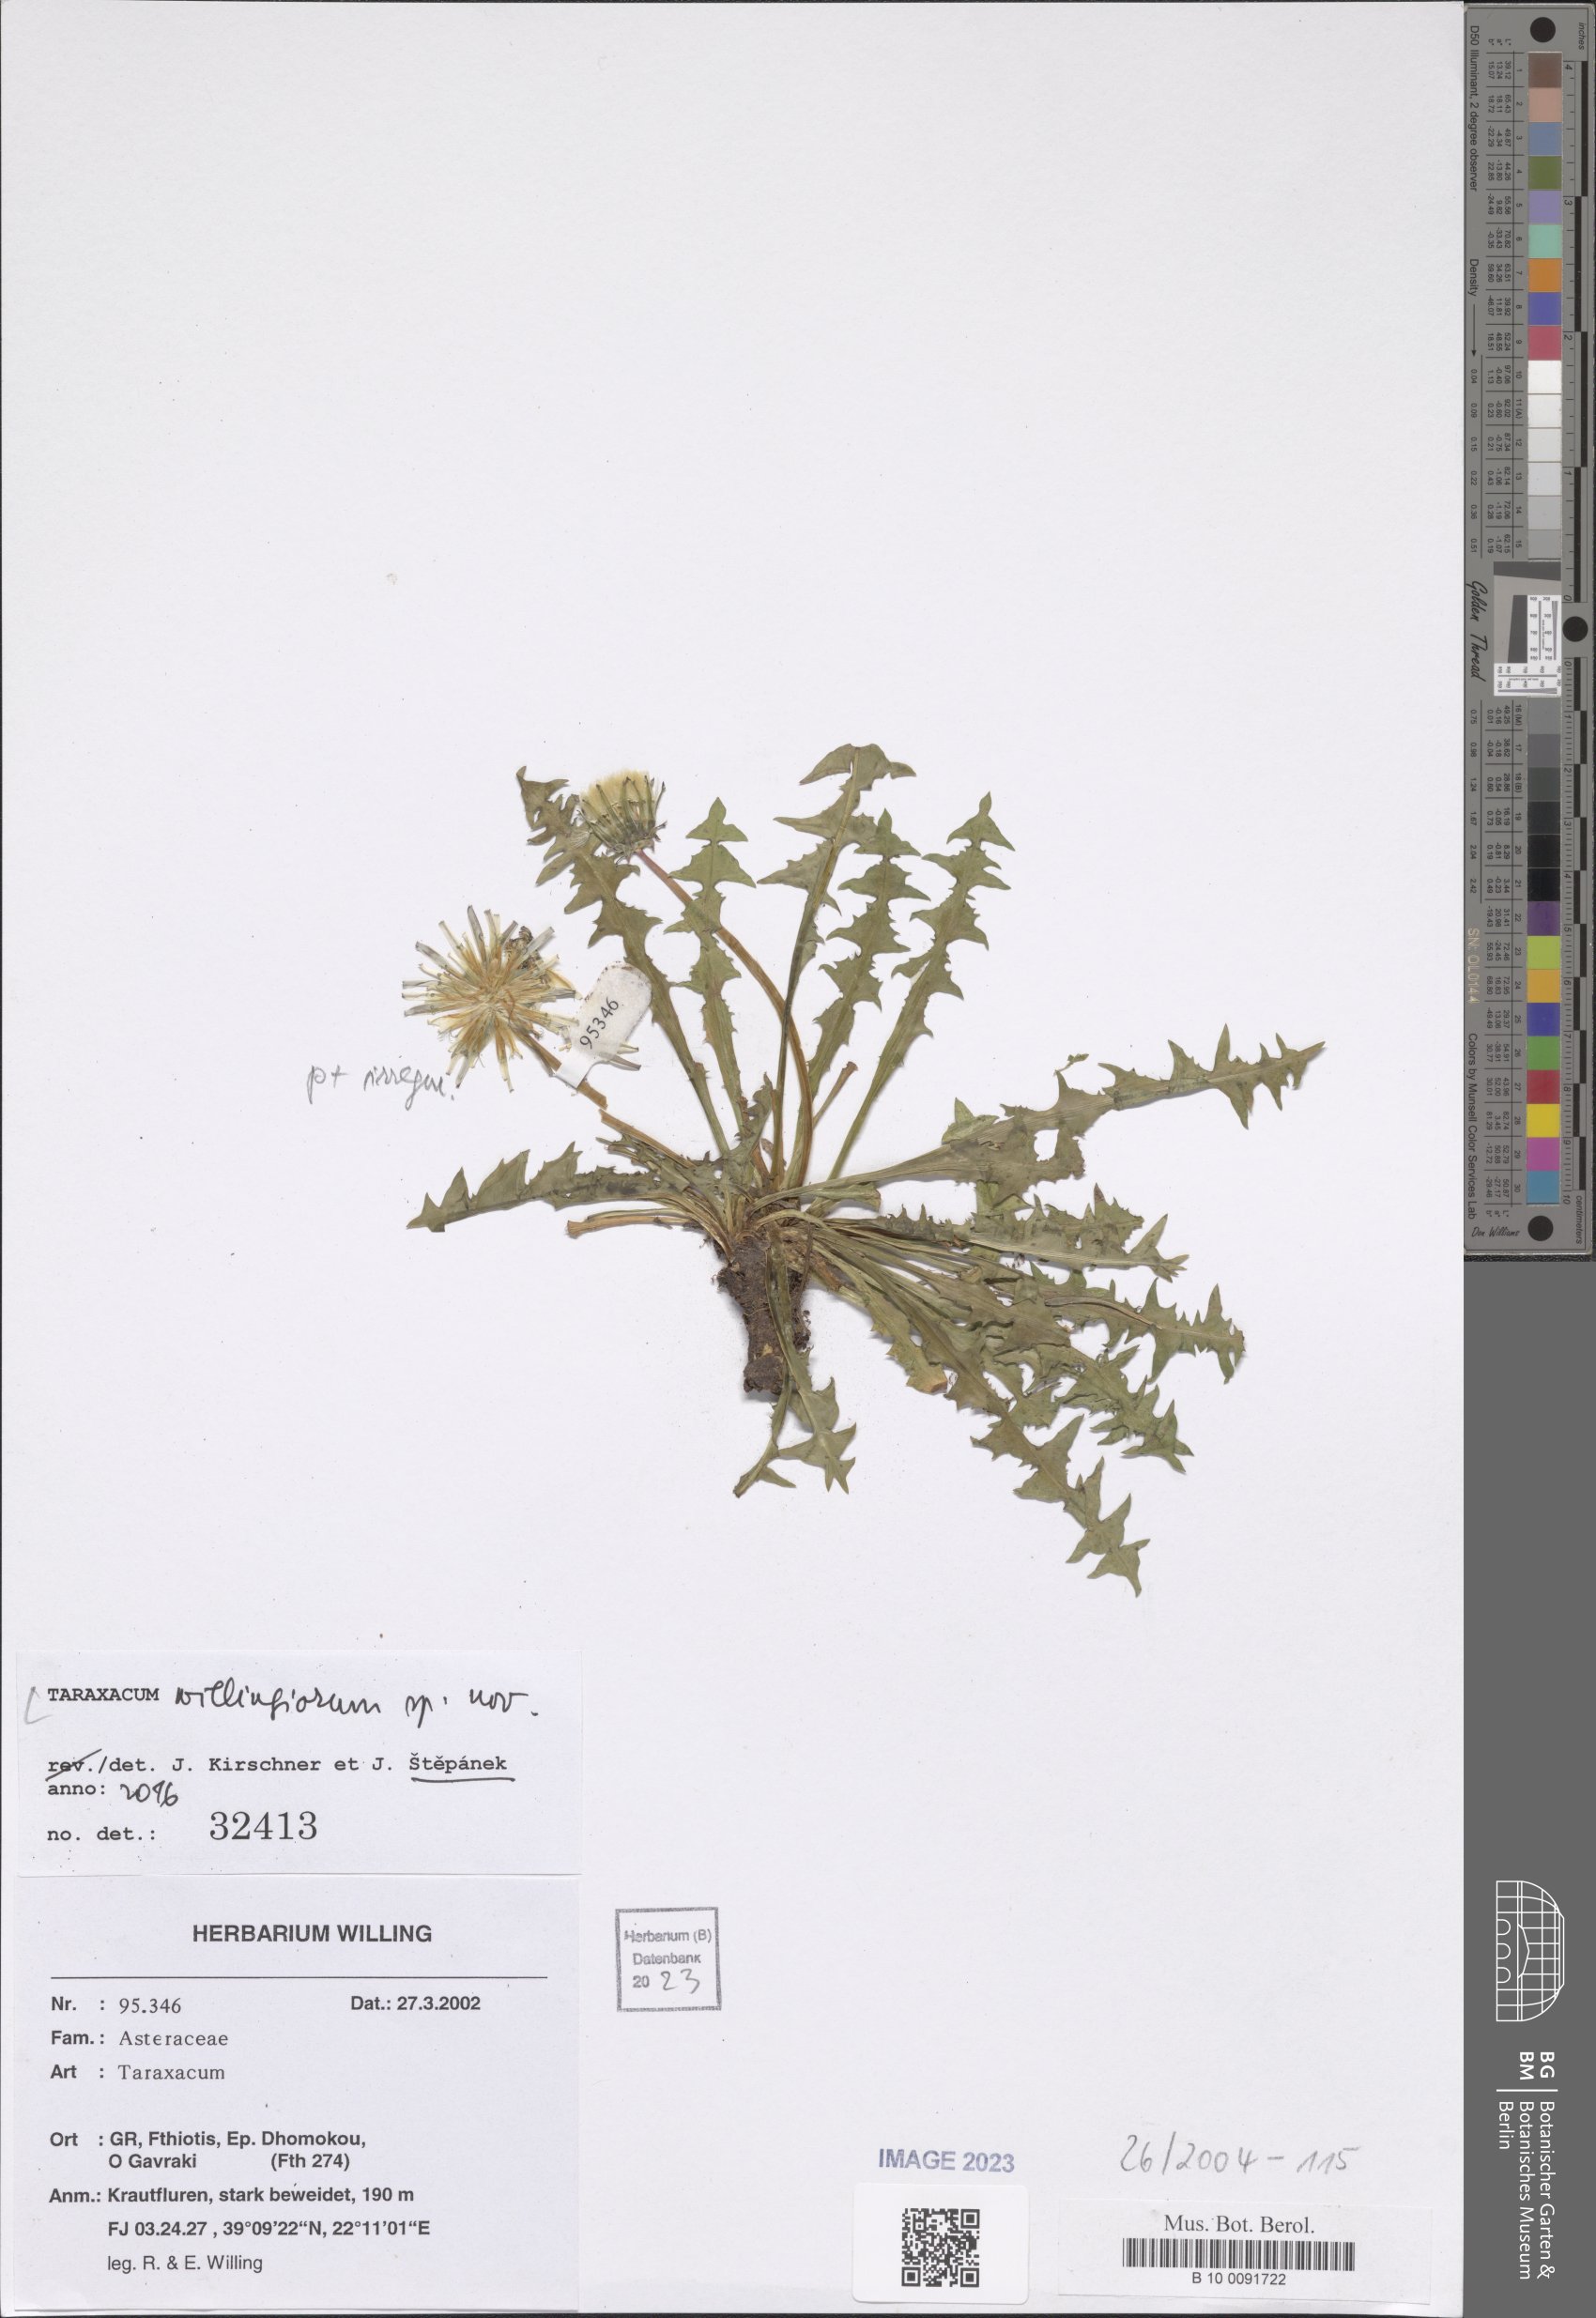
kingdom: Plantae
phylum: Tracheophyta
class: Magnoliopsida
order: Asterales
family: Asteraceae
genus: Taraxacum
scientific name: Taraxacum
